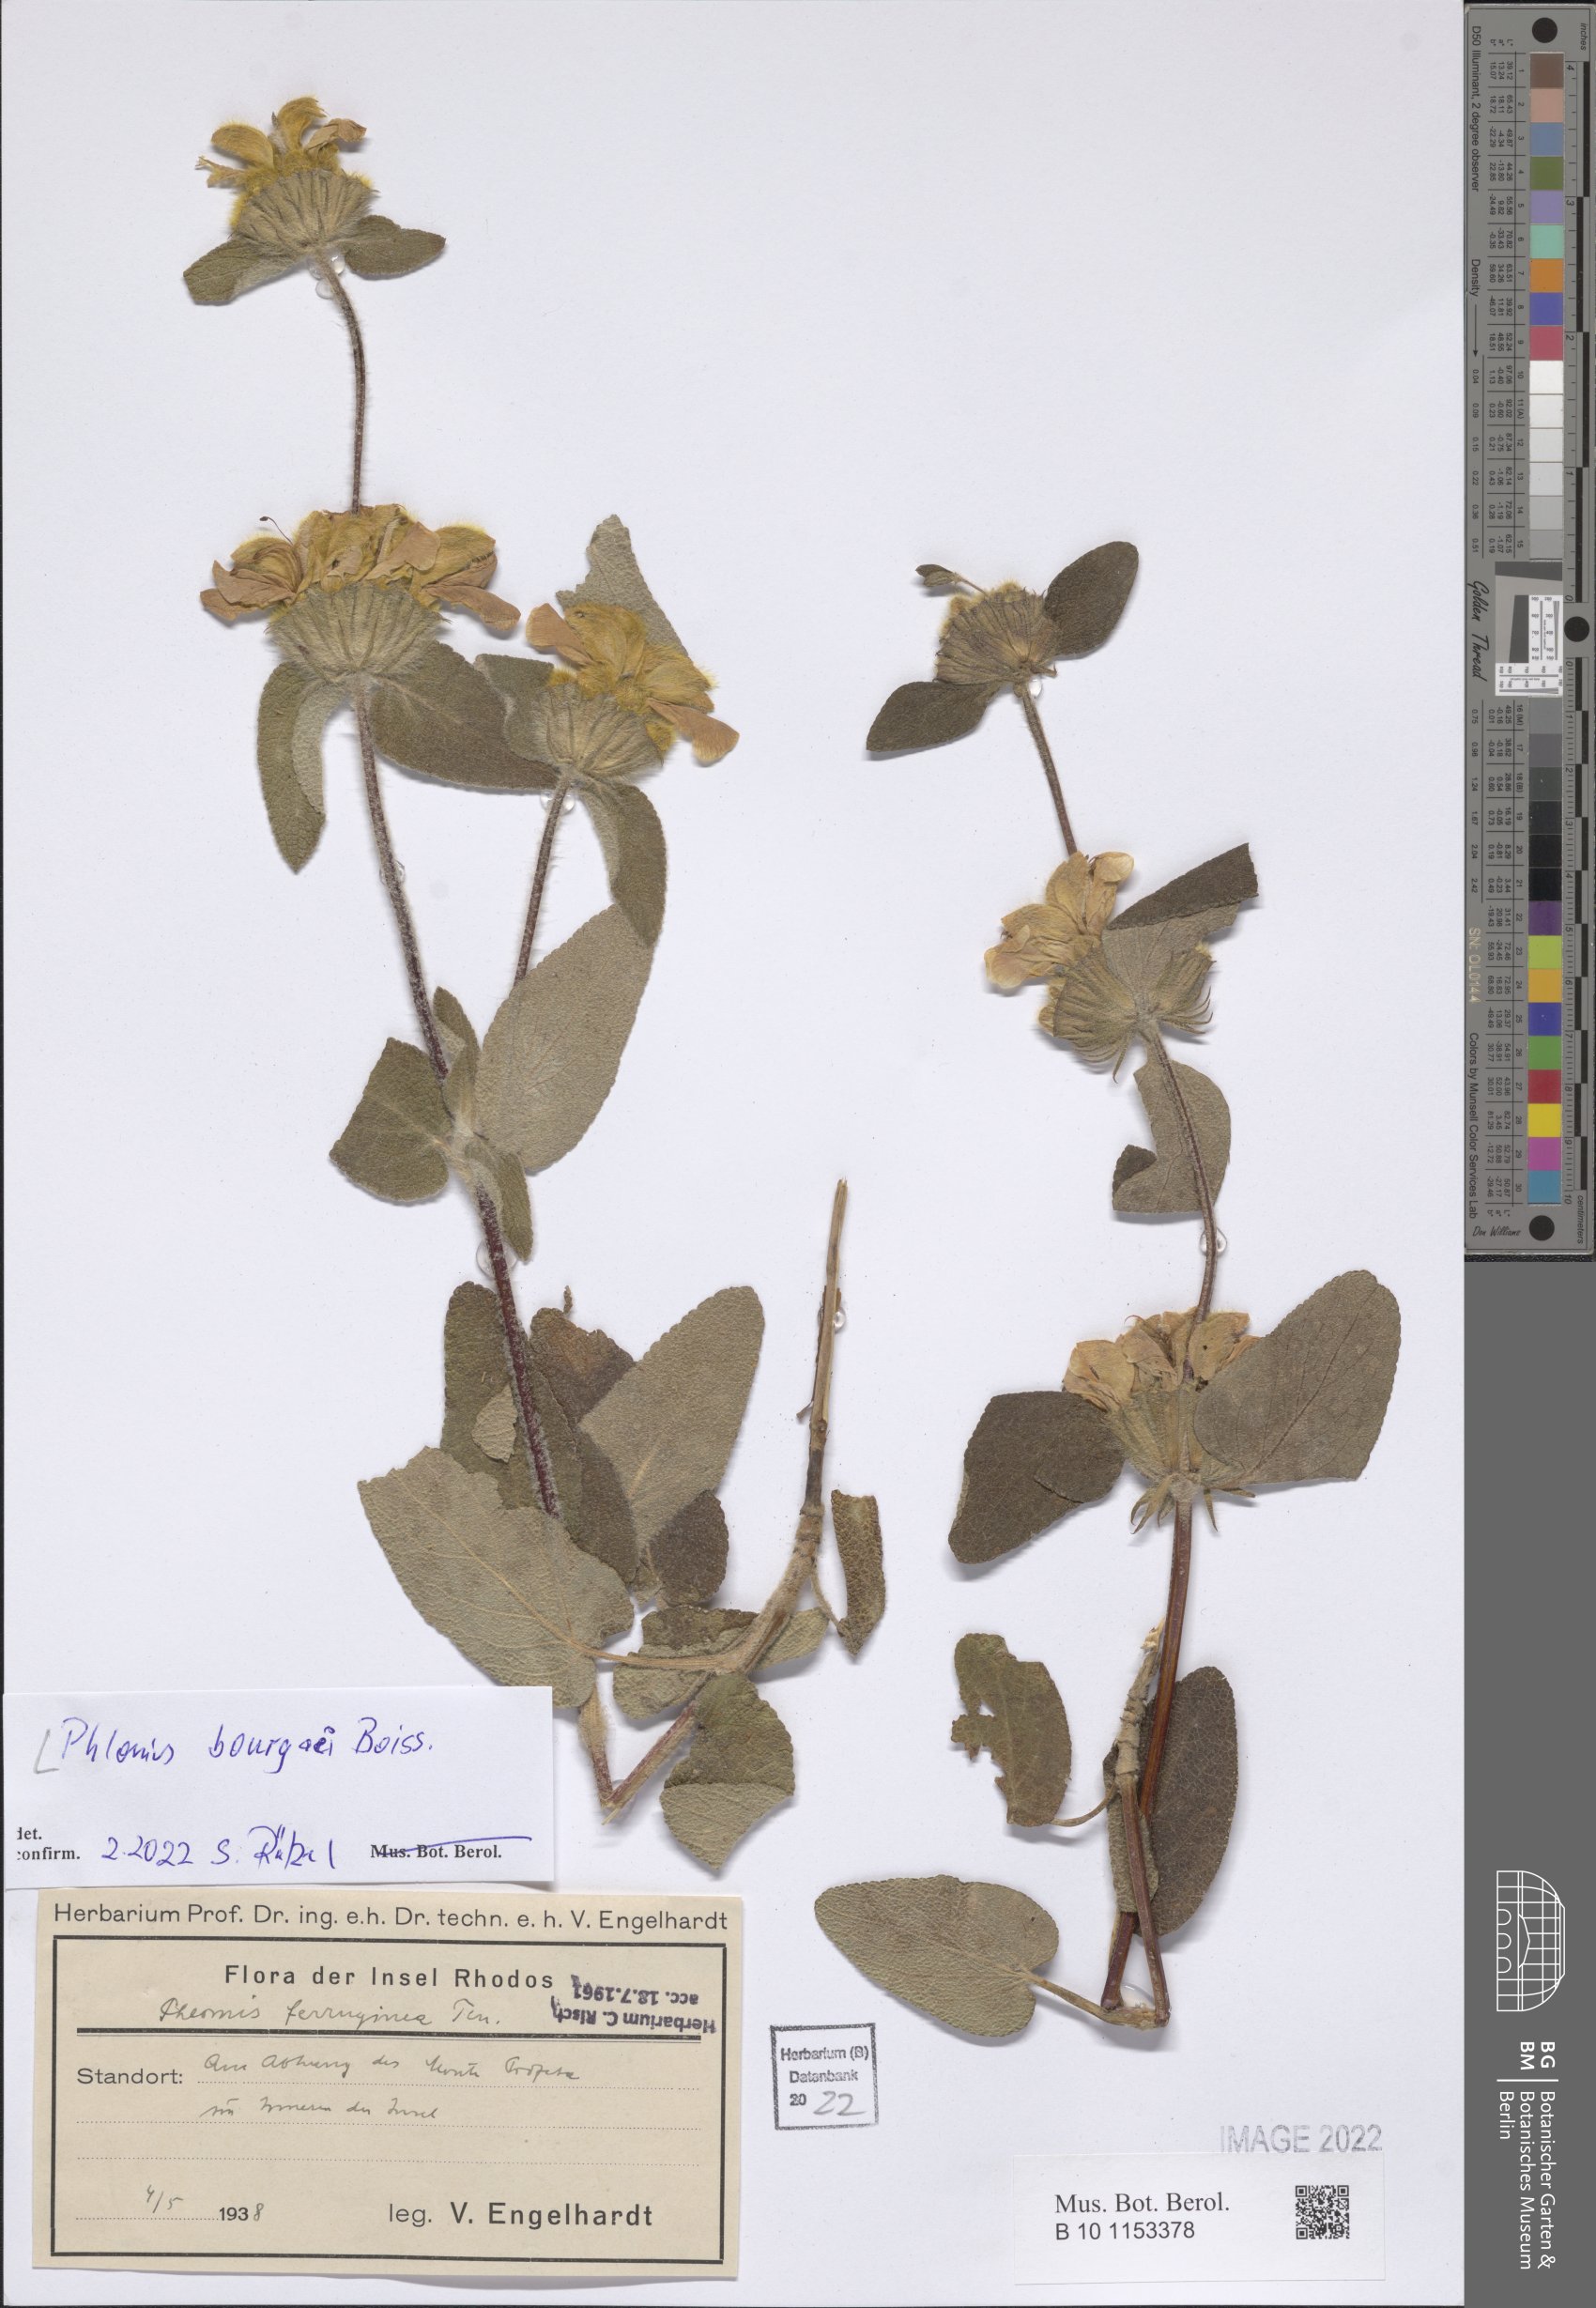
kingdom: Plantae
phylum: Tracheophyta
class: Magnoliopsida
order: Lamiales
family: Lamiaceae
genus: Phlomis
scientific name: Phlomis bourgaei
